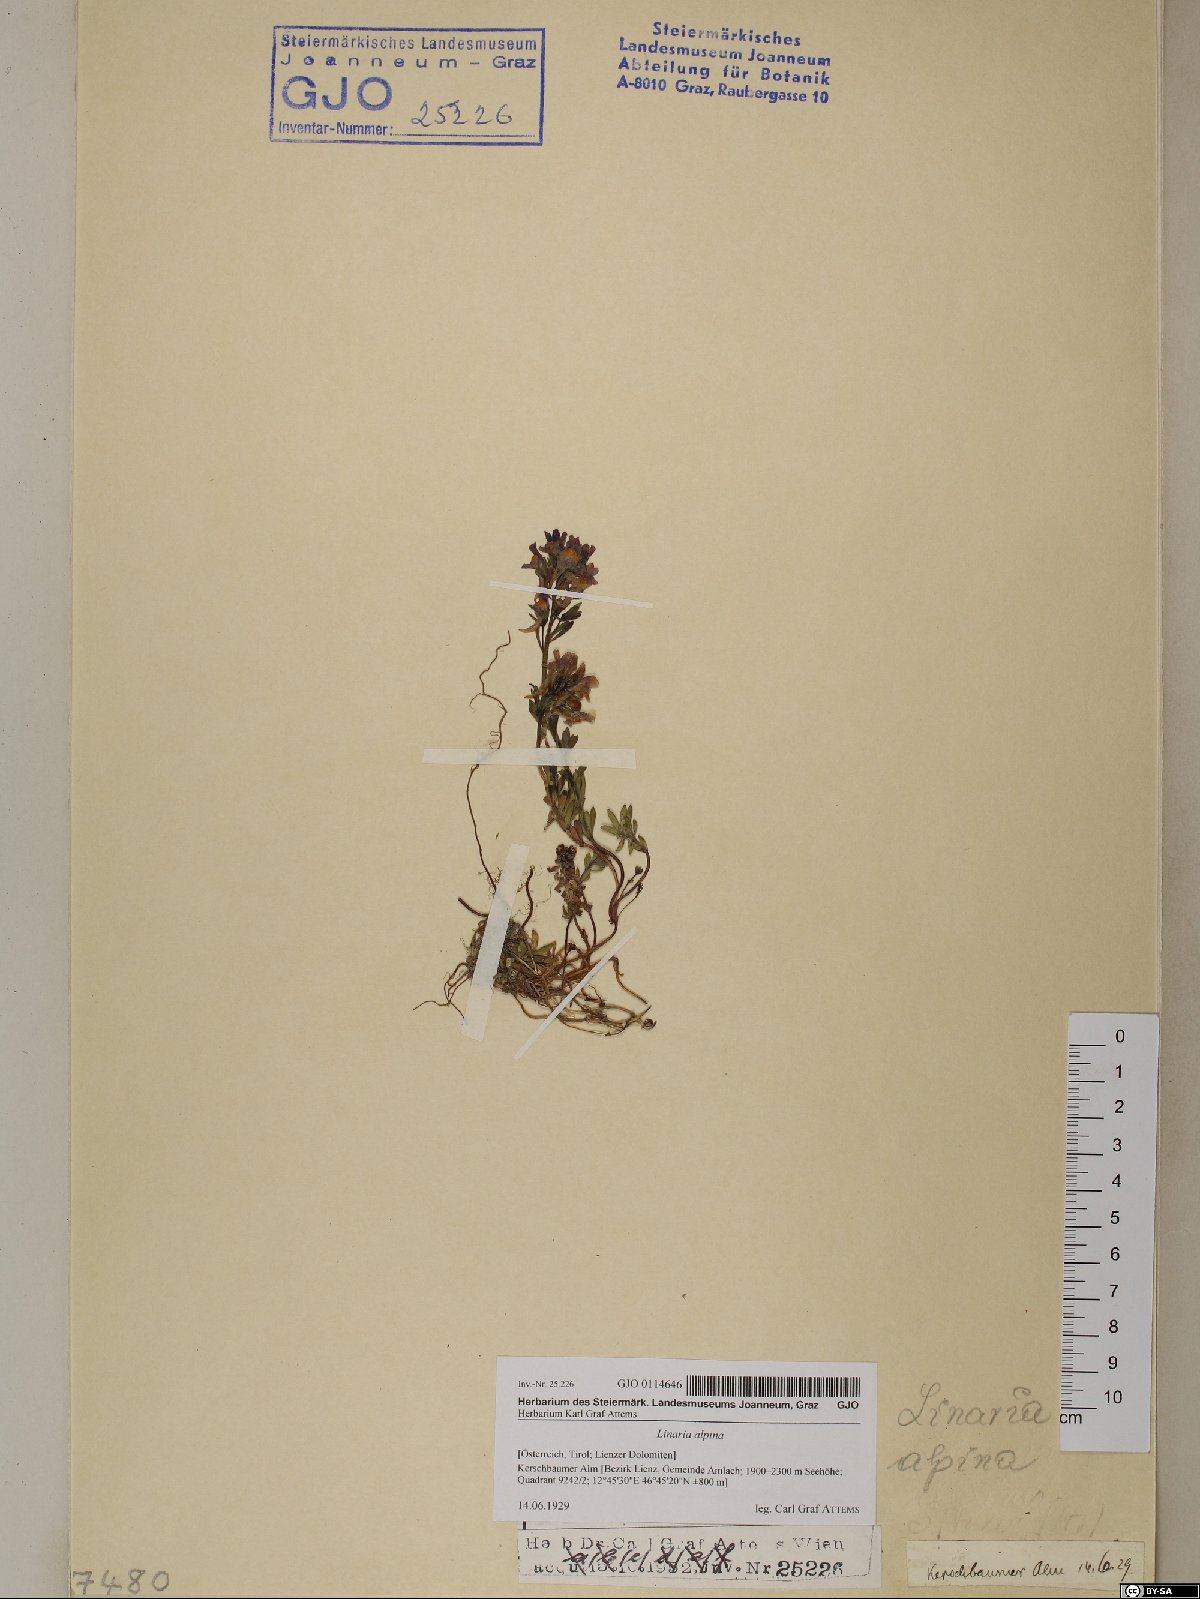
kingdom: Plantae
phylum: Tracheophyta
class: Magnoliopsida
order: Lamiales
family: Plantaginaceae
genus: Linaria
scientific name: Linaria alpina
